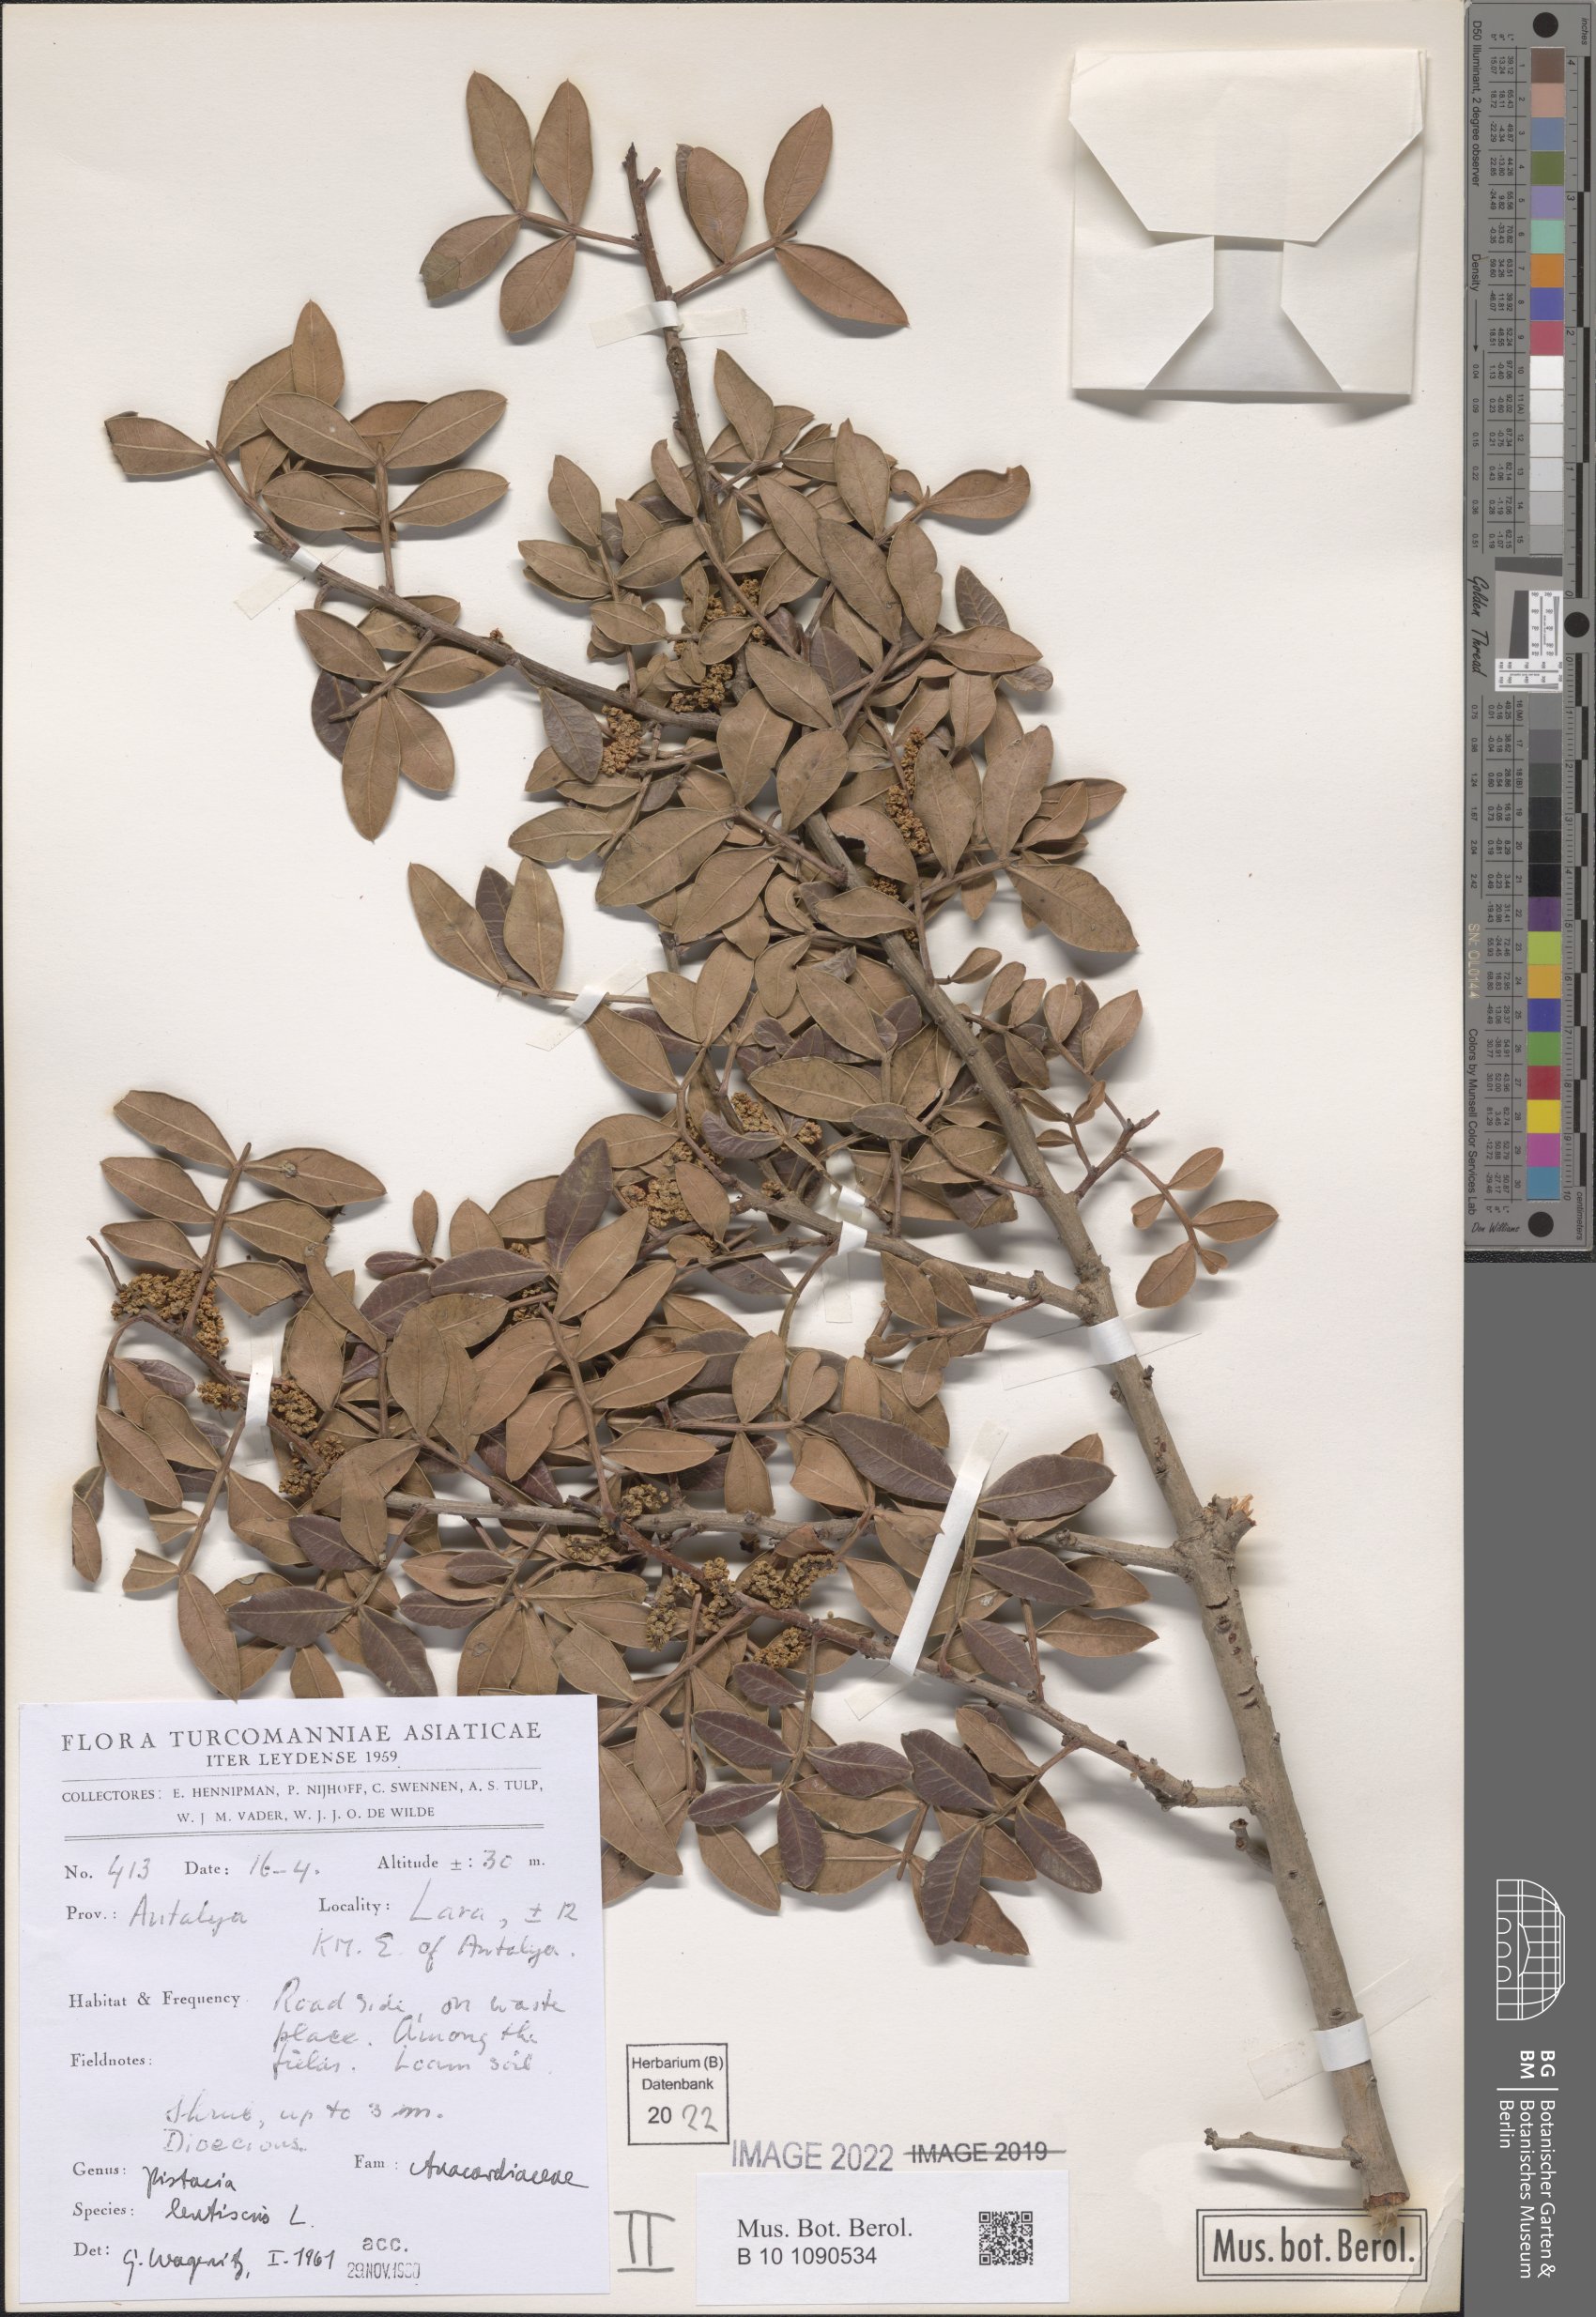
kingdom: Plantae
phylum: Tracheophyta
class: Magnoliopsida
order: Sapindales
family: Anacardiaceae
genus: Pistacia
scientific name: Pistacia lentiscus
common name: Lentisk
